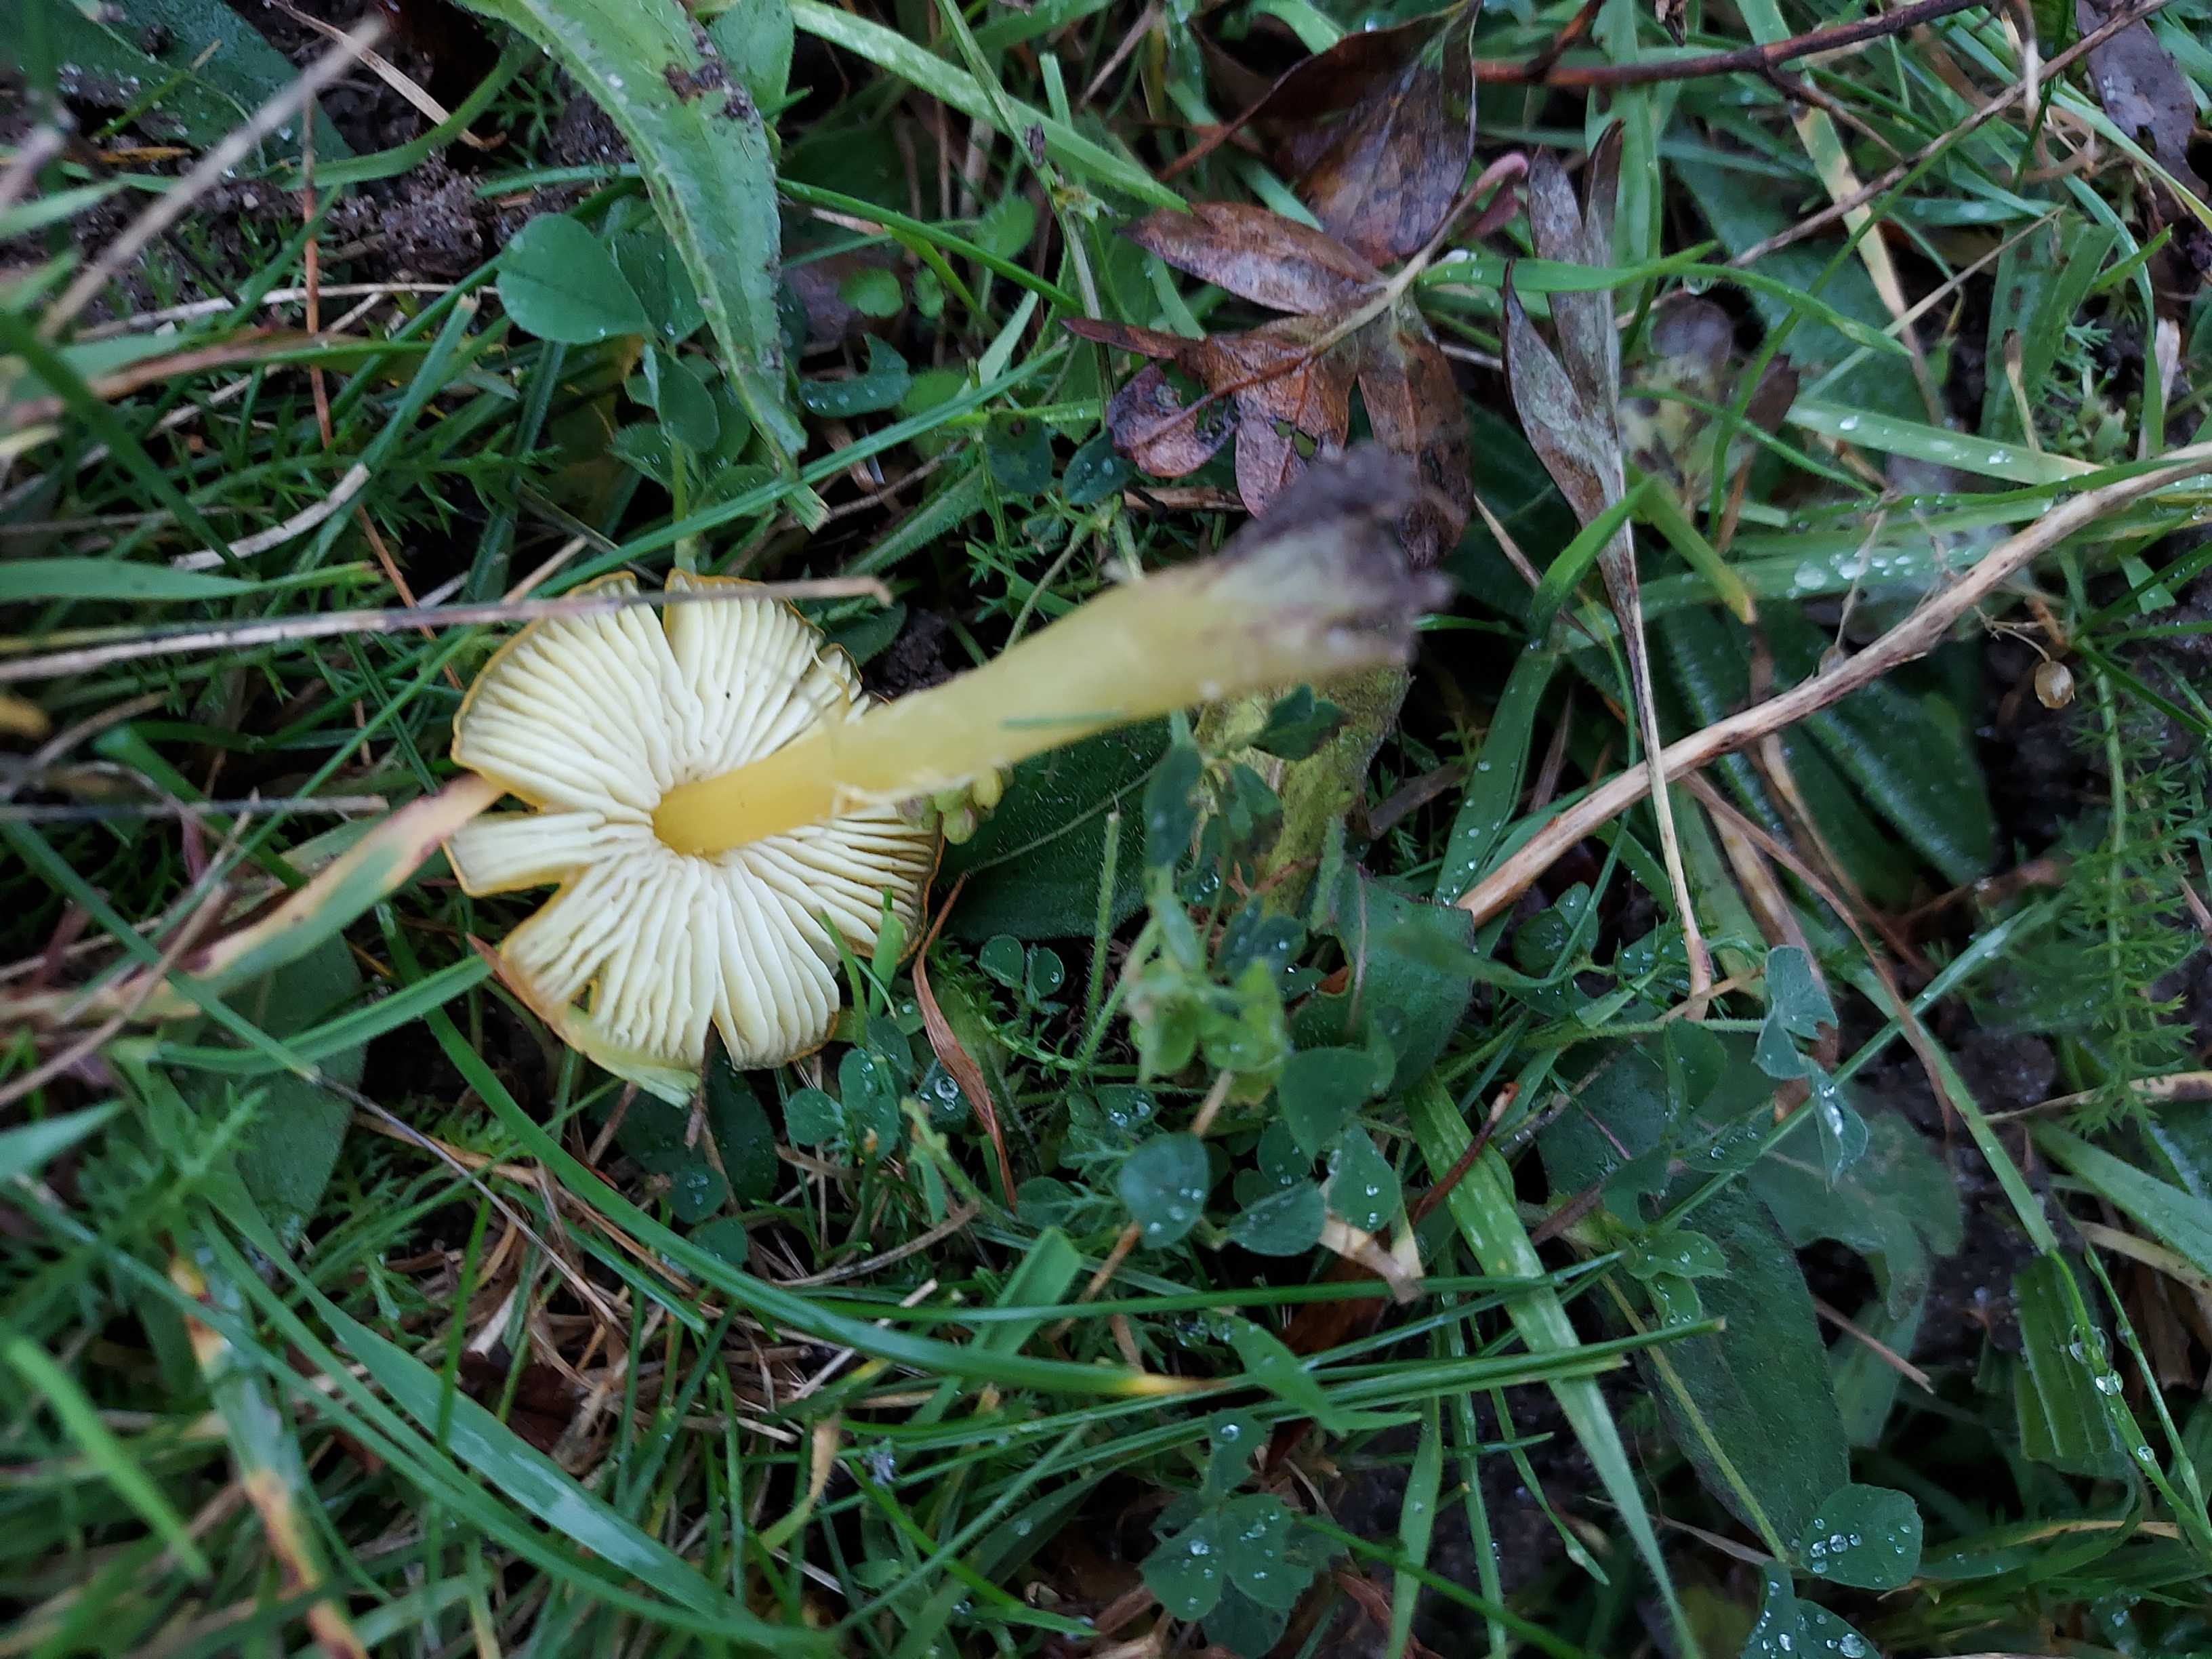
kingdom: Fungi
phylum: Basidiomycota
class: Agaricomycetes
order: Agaricales
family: Hygrophoraceae
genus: Hygrocybe
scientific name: Hygrocybe ceracea
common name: voksgul vokshat
